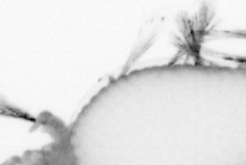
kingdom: Animalia
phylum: Annelida
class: Polychaeta
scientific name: Polychaeta
